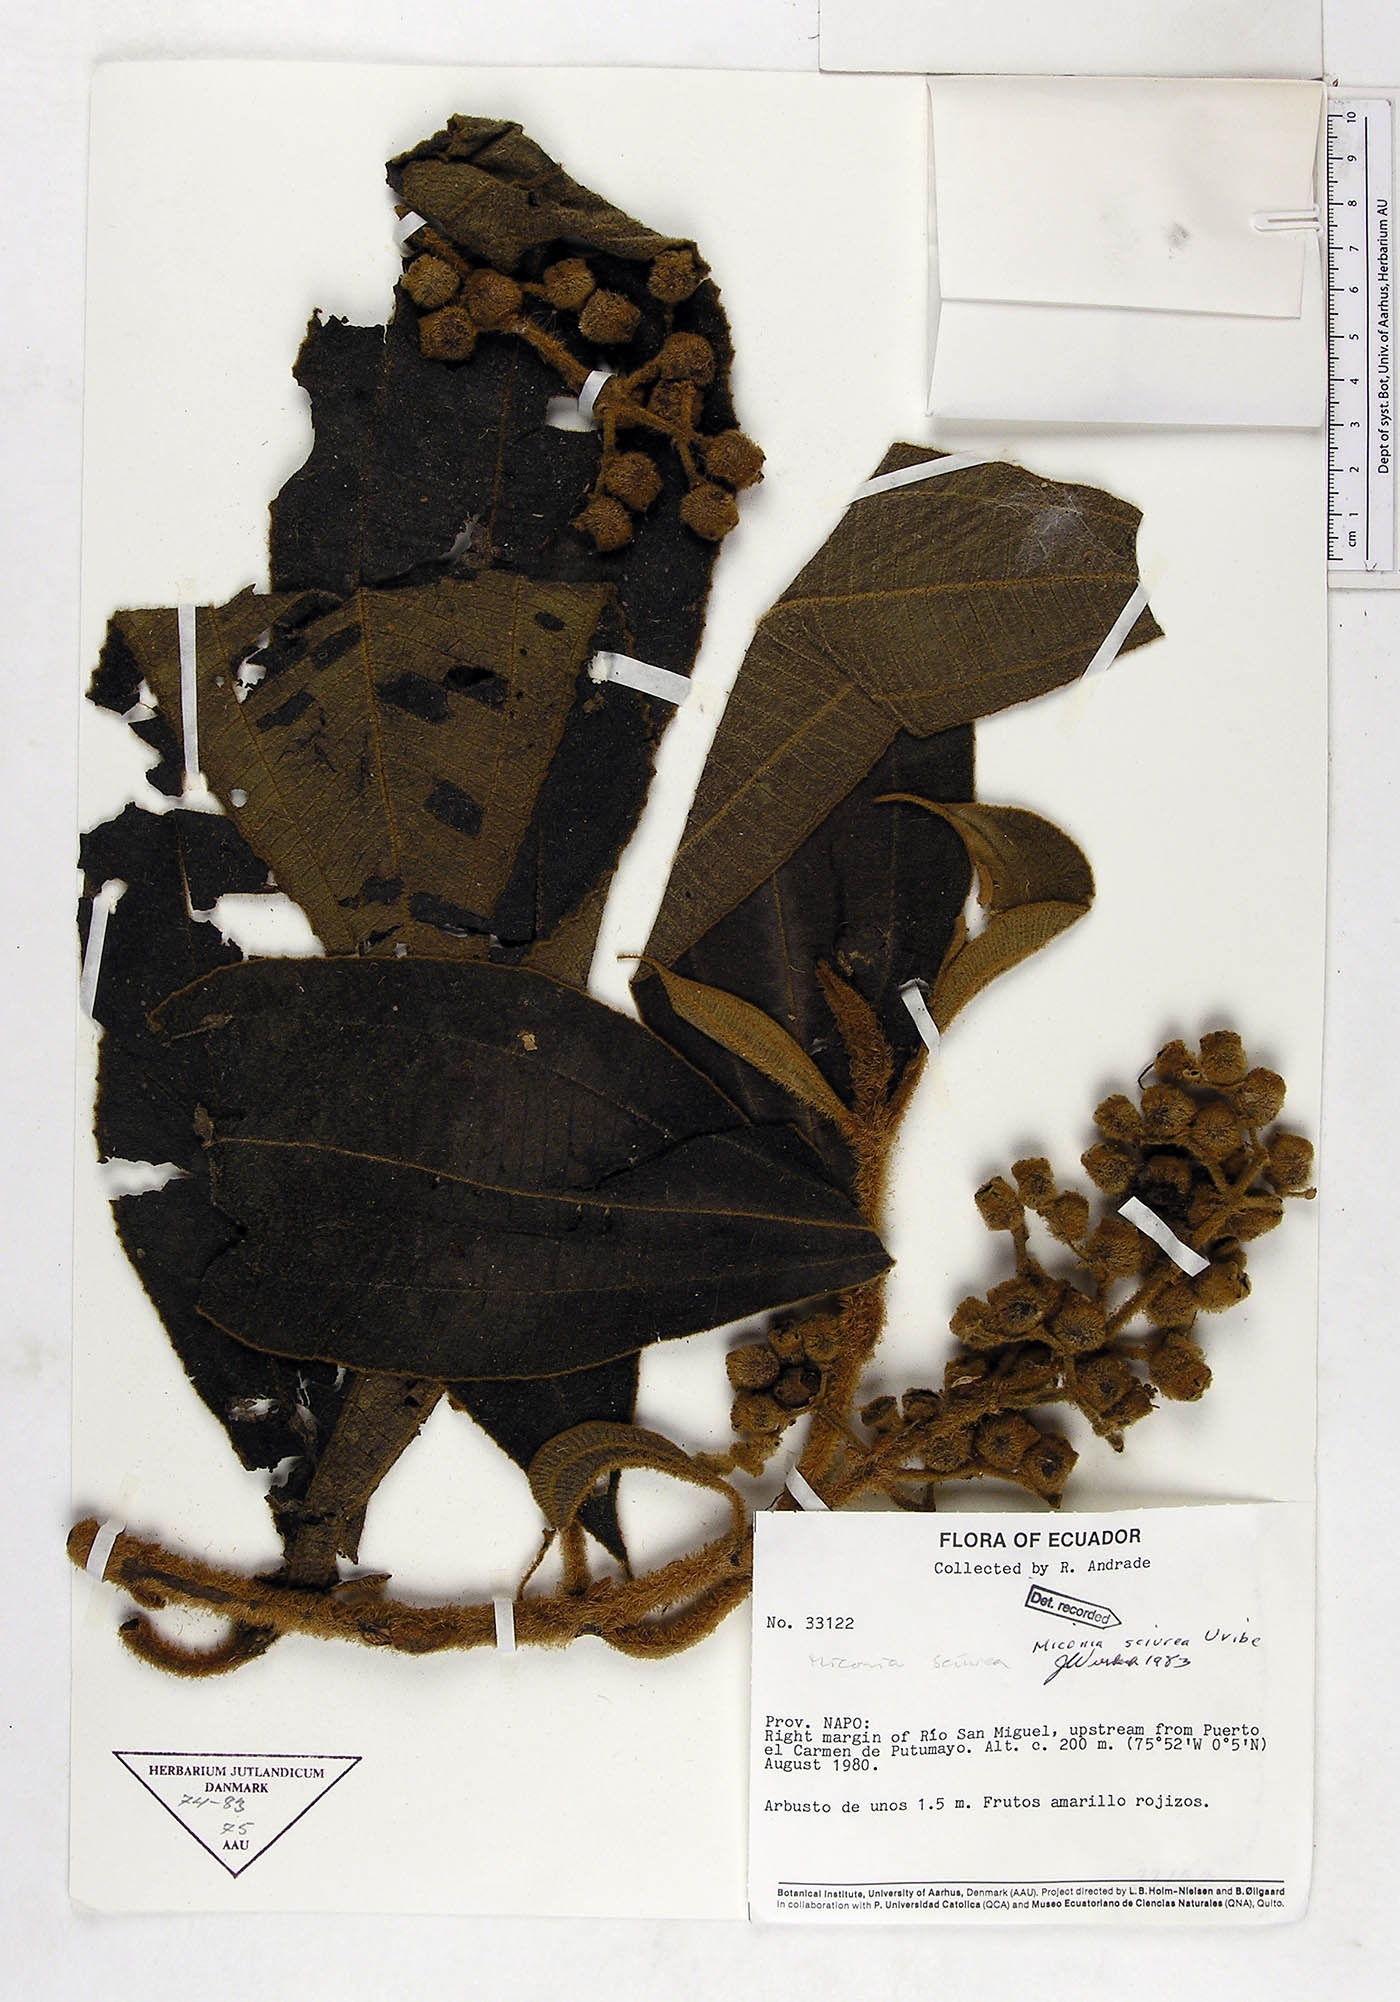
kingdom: Plantae
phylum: Tracheophyta
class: Magnoliopsida
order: Myrtales
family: Melastomataceae
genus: Miconia
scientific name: Miconia sciurea
